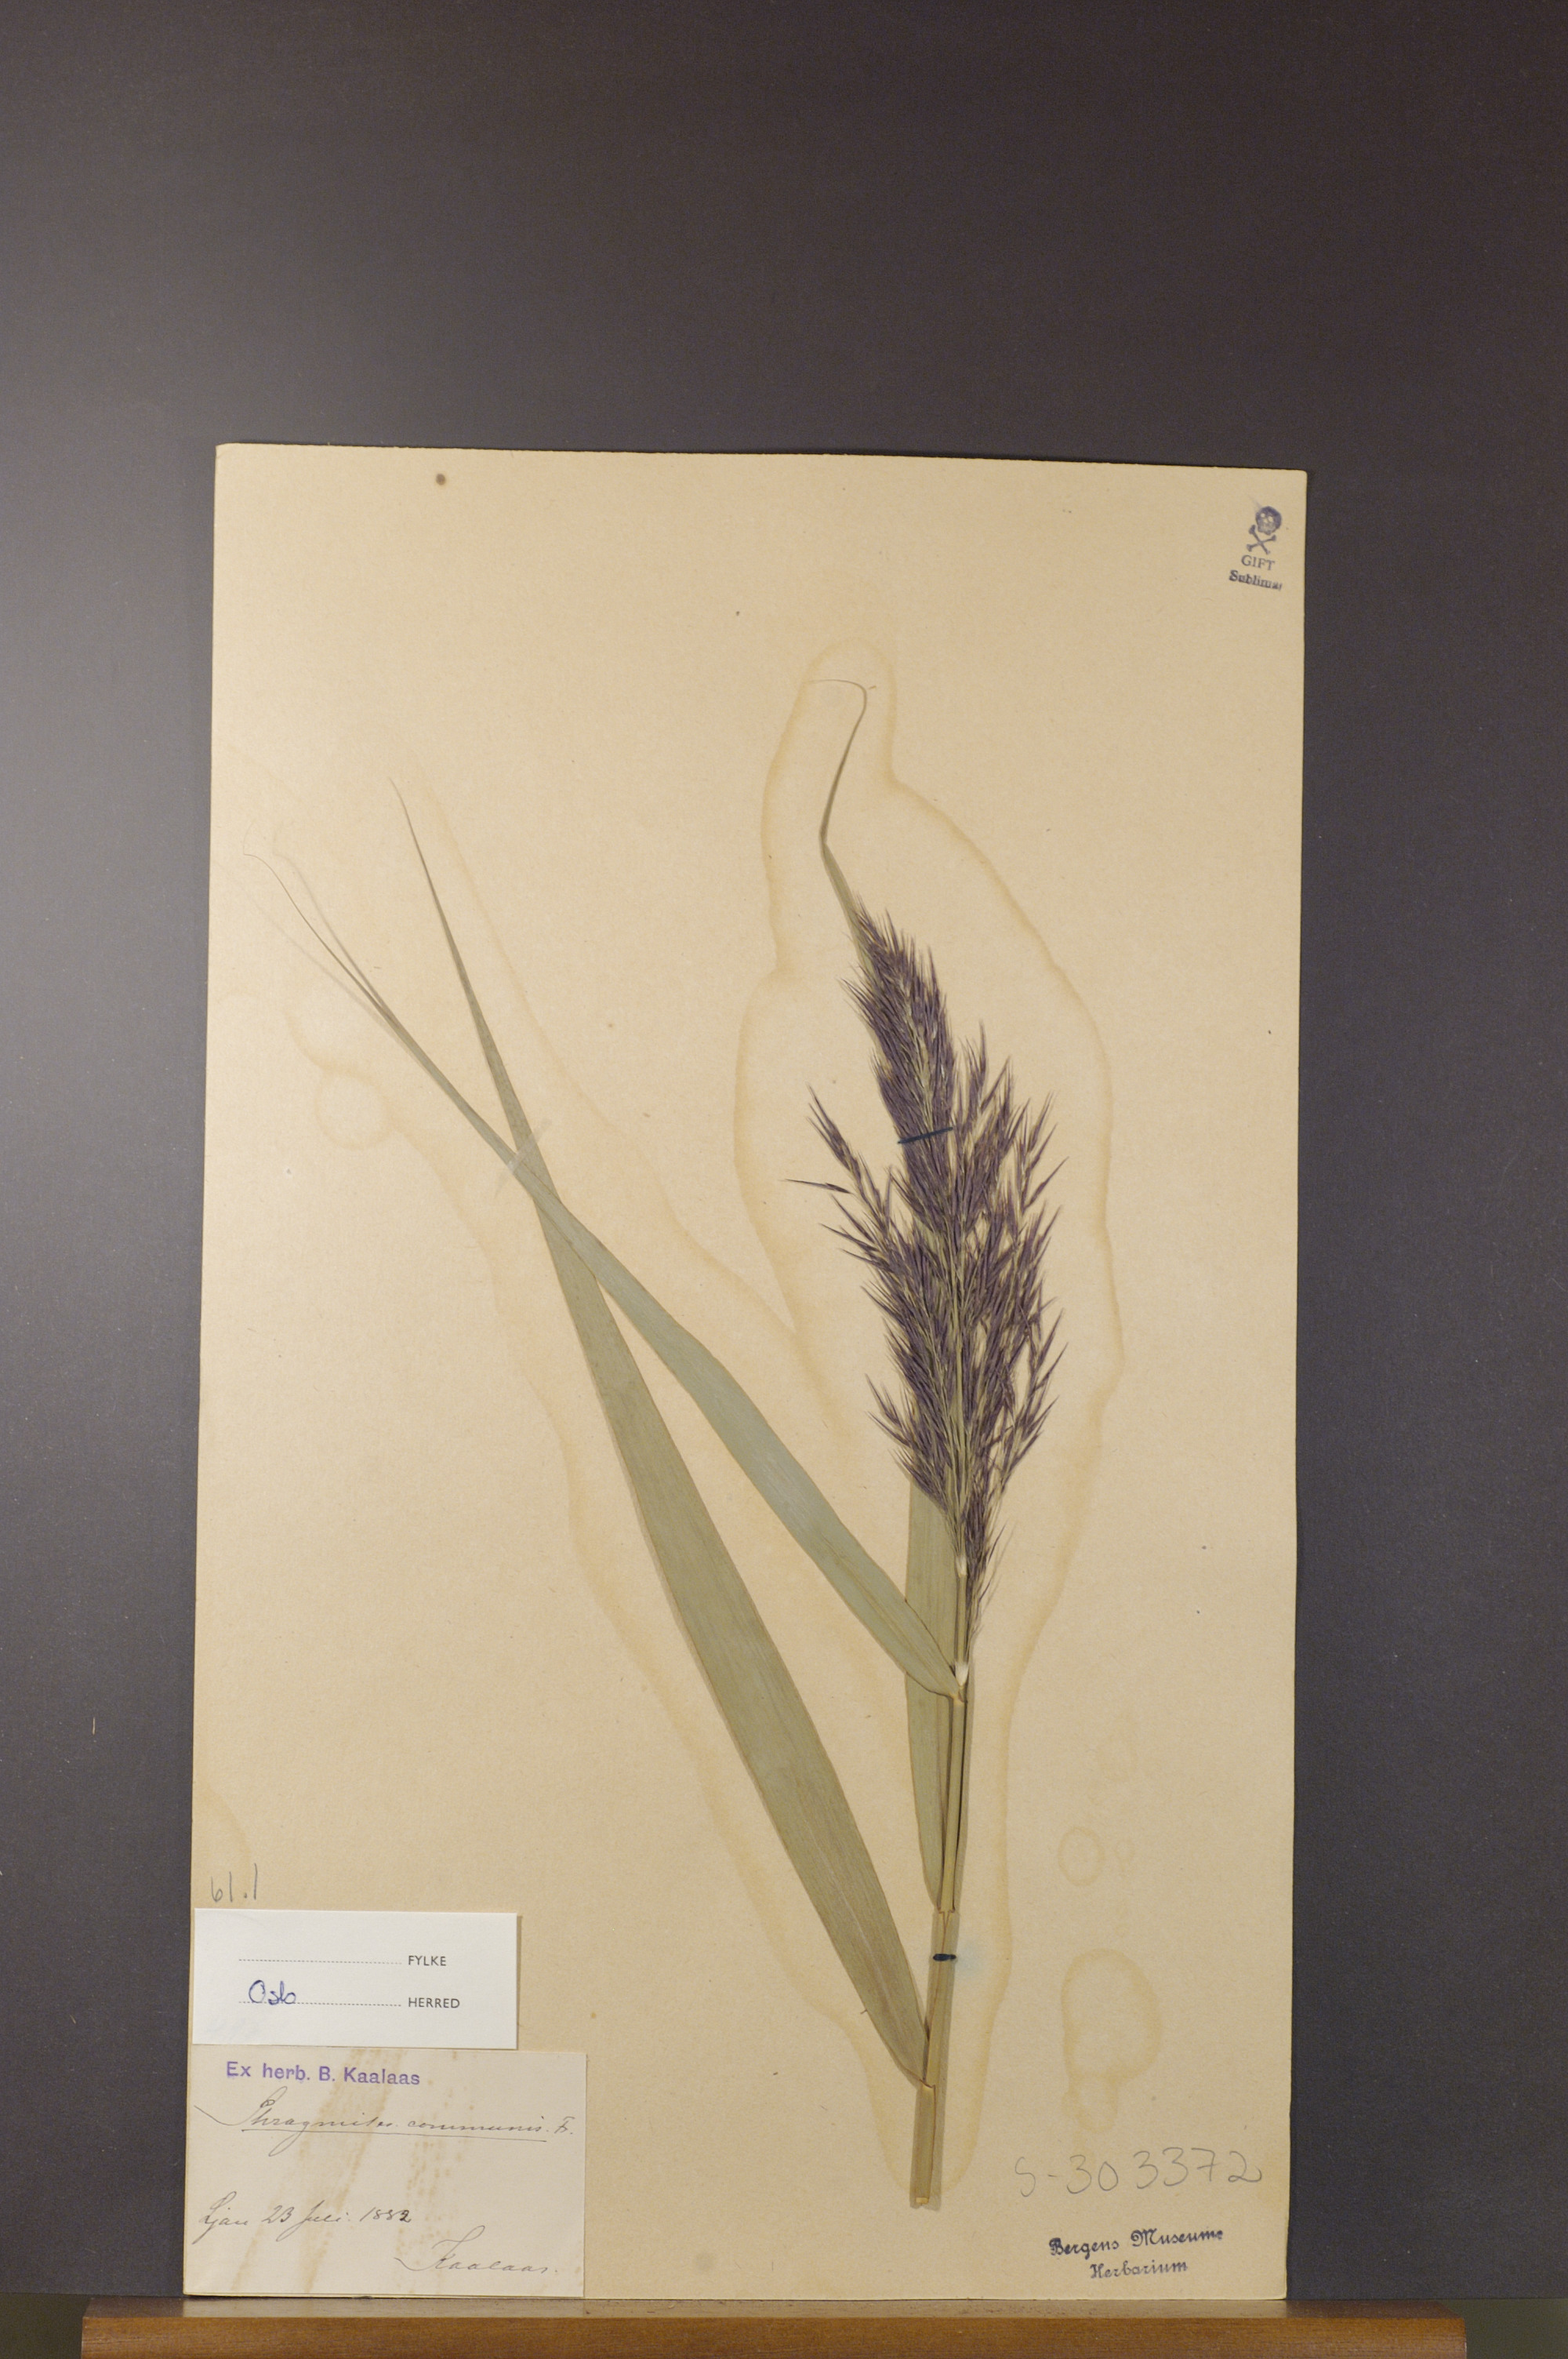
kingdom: Plantae
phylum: Tracheophyta
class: Liliopsida
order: Poales
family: Poaceae
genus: Phragmites
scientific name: Phragmites australis
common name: Common reed
